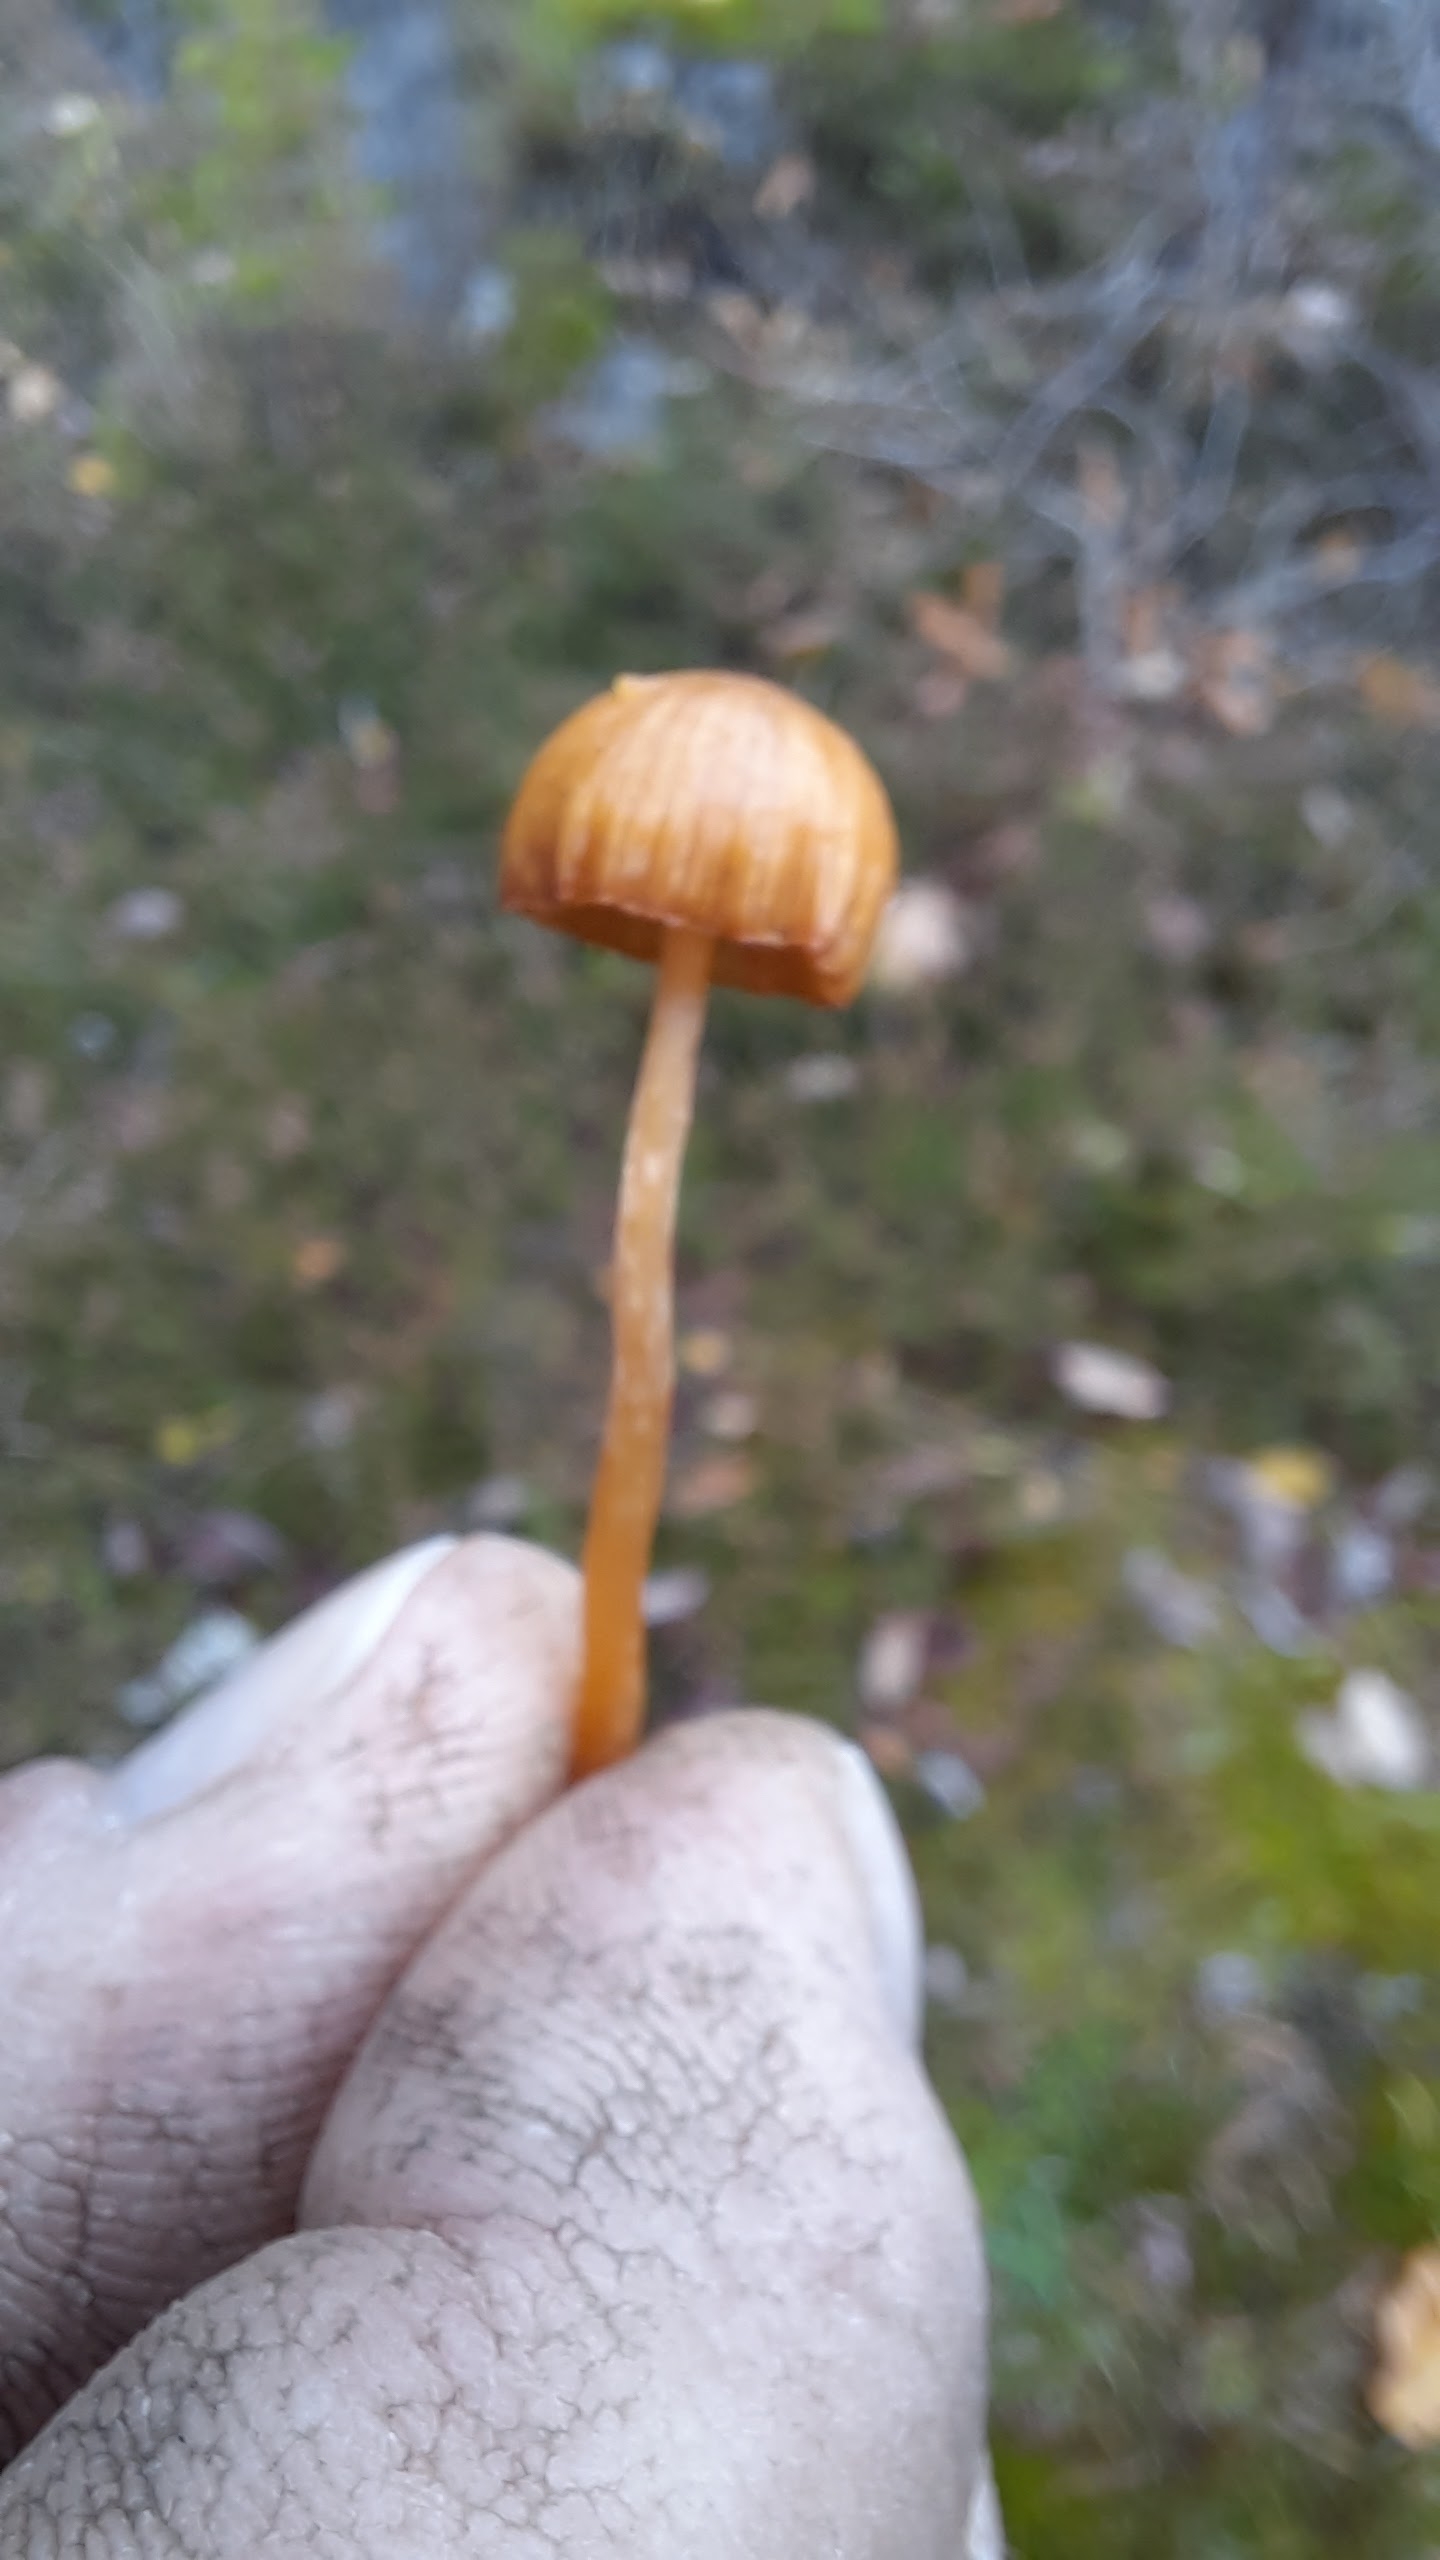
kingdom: Fungi
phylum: Basidiomycota
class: Agaricomycetes
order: Agaricales
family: Hymenogastraceae
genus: Galerina
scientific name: Galerina
